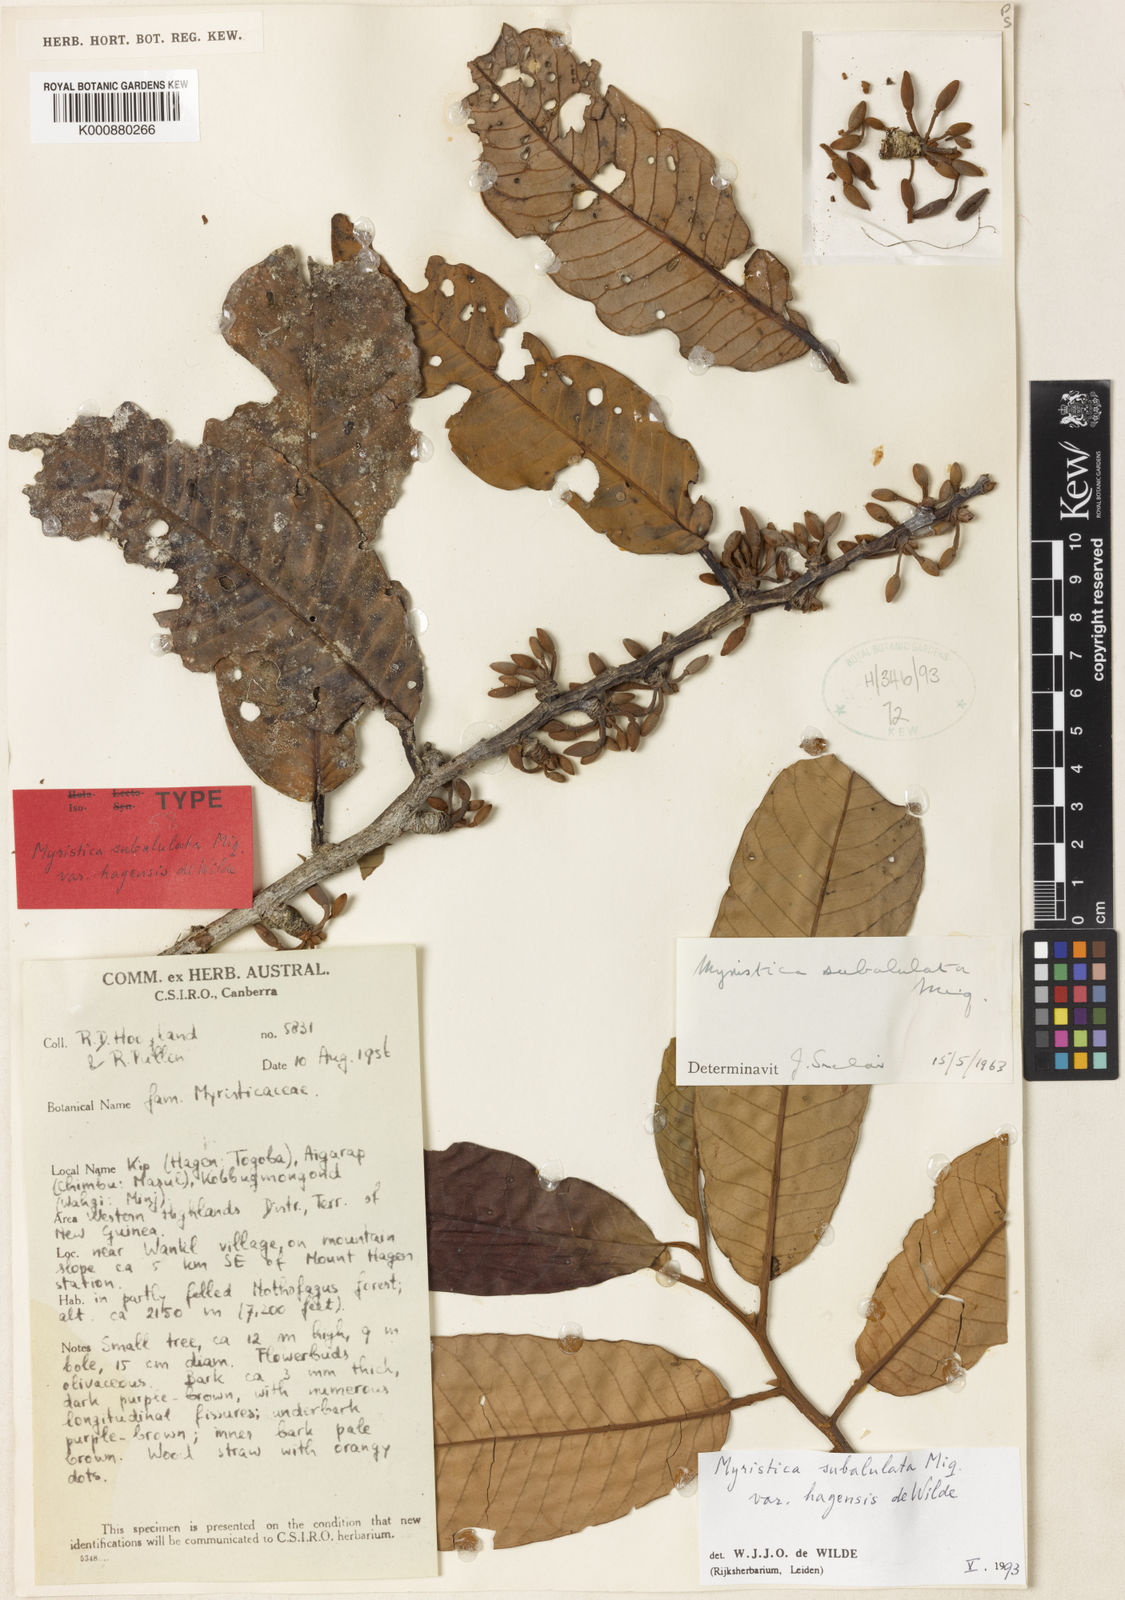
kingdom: Plantae
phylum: Tracheophyta
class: Magnoliopsida
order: Magnoliales
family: Myristicaceae
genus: Myristica
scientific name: Myristica subalulata
